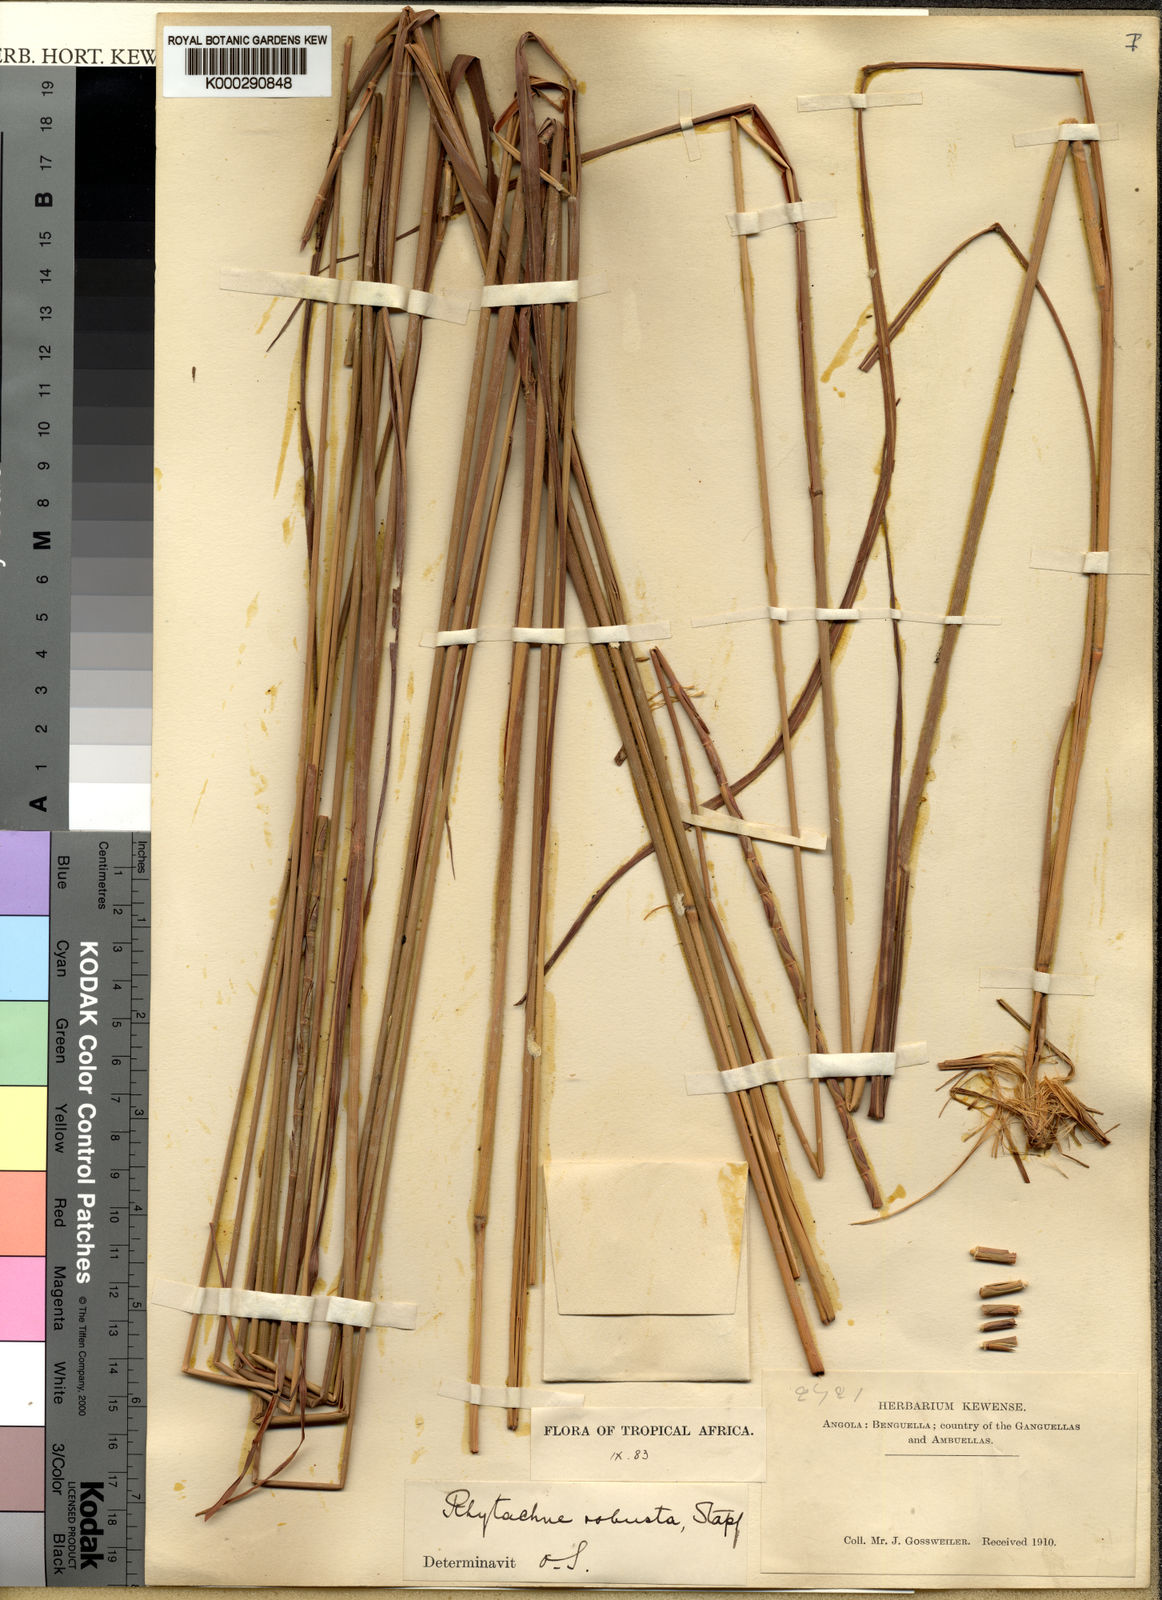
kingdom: Plantae
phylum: Tracheophyta
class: Liliopsida
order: Poales
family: Poaceae
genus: Rhytachne
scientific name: Rhytachne robusta
